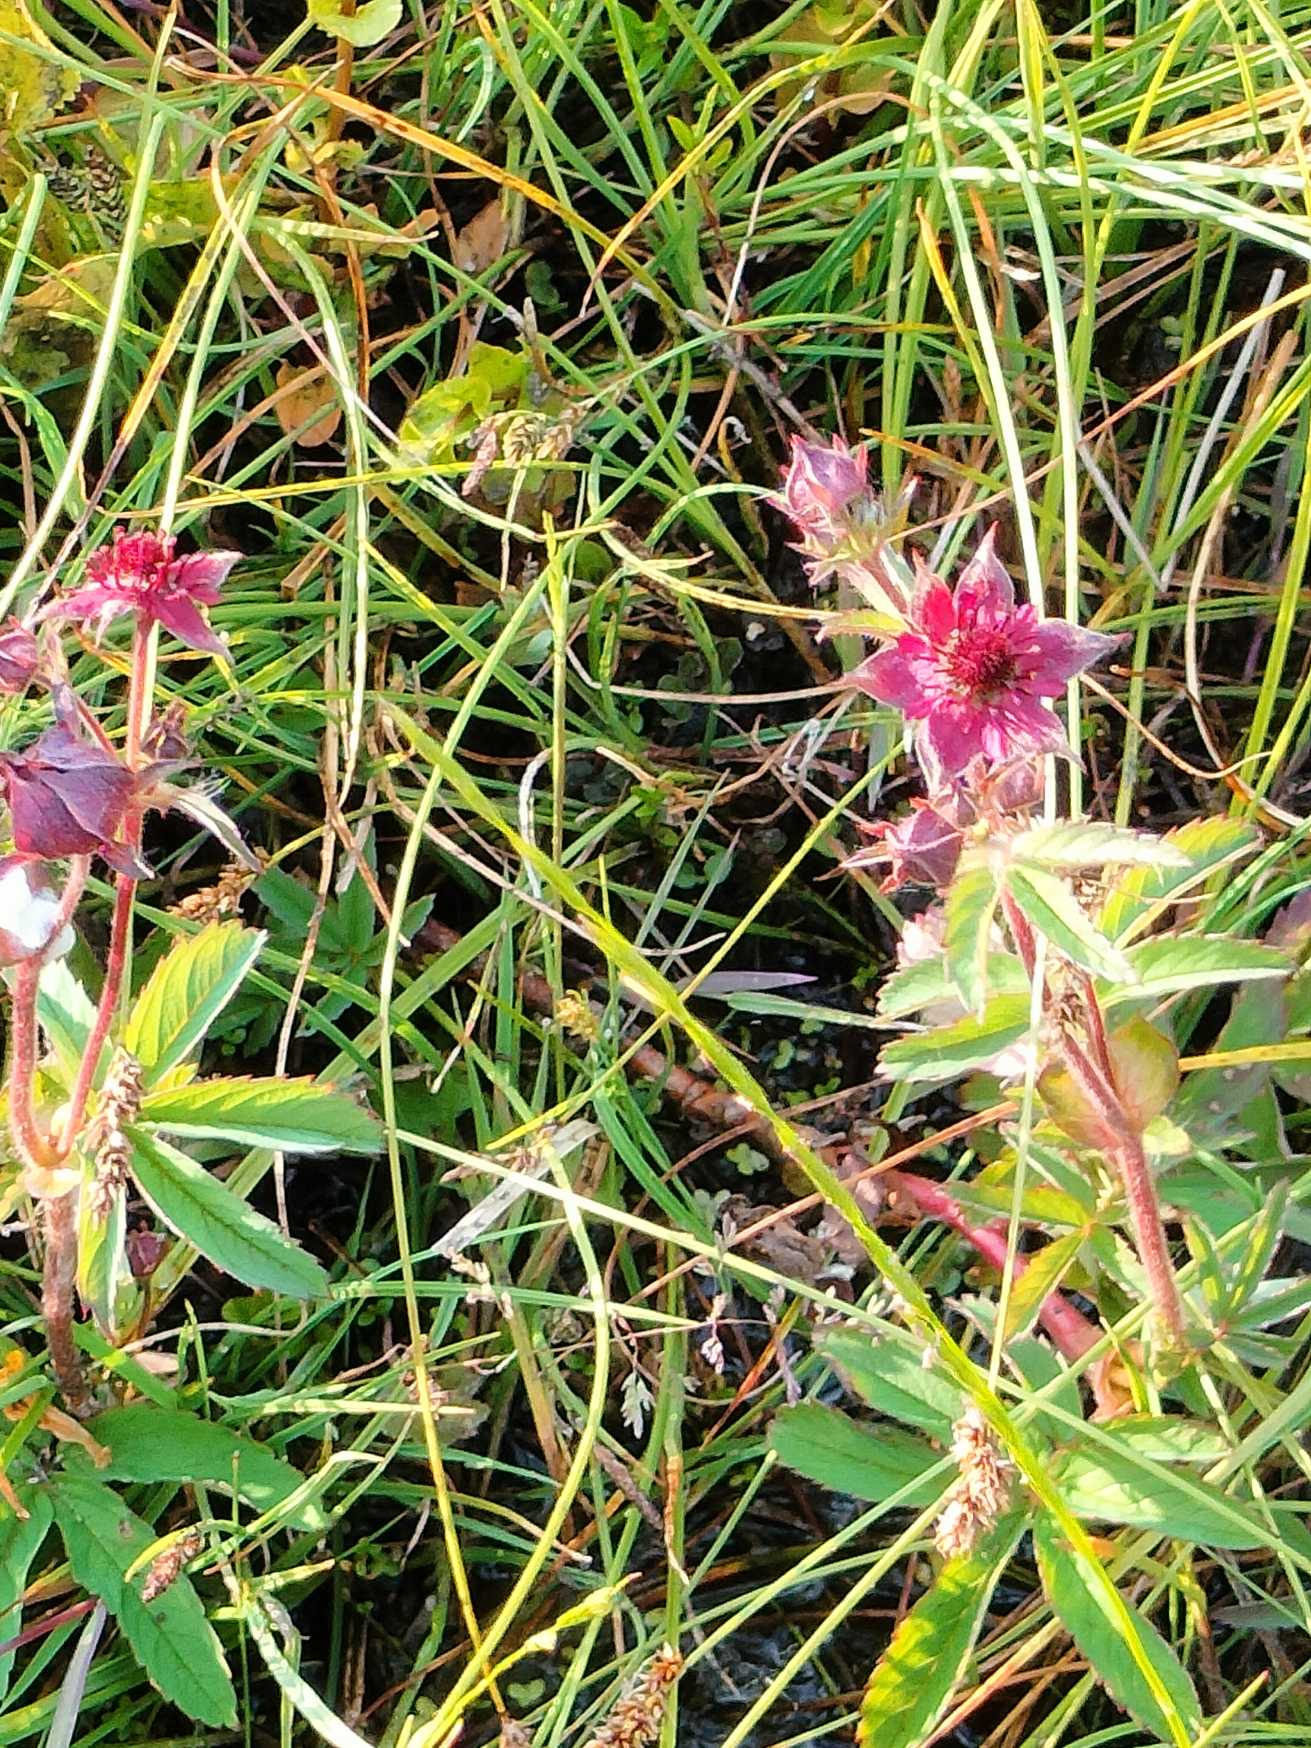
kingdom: Plantae
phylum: Tracheophyta
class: Magnoliopsida
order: Rosales
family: Rosaceae
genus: Comarum
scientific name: Comarum palustre
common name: Kragefod
